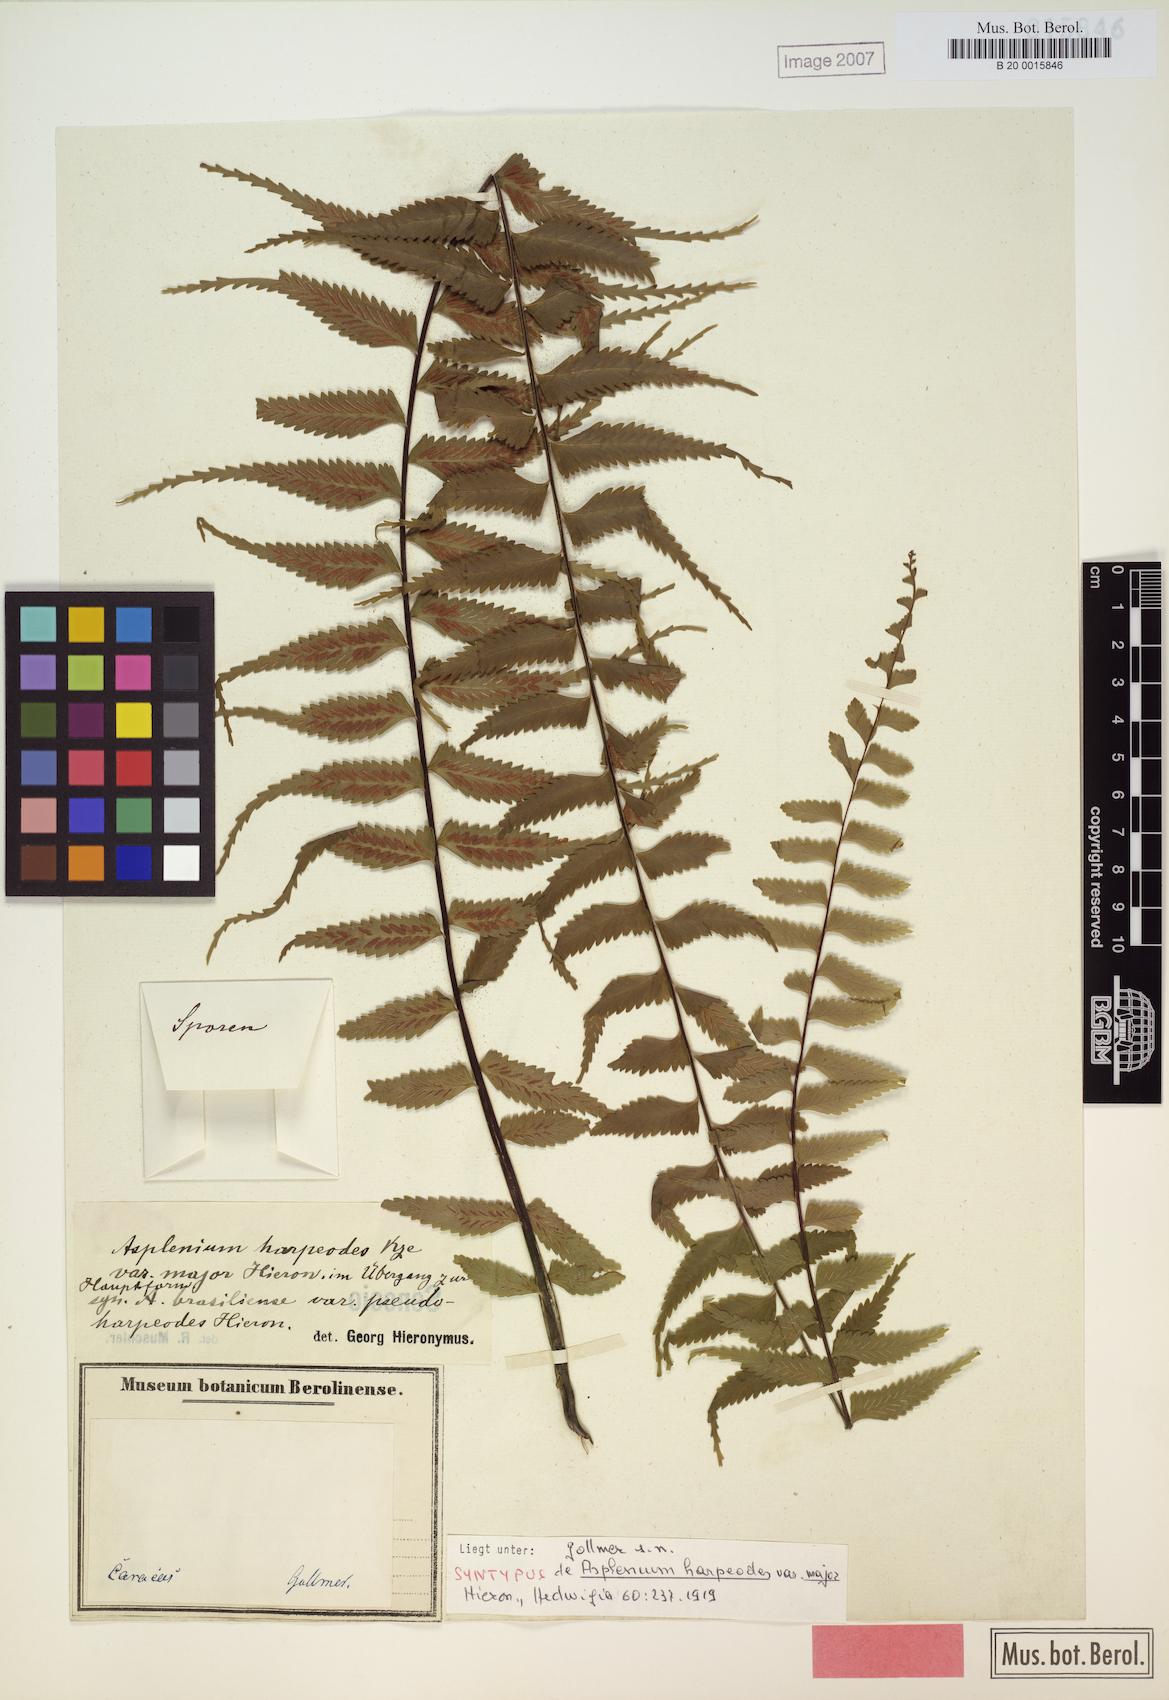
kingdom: Plantae
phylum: Tracheophyta
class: Polypodiopsida
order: Polypodiales
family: Aspleniaceae
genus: Asplenium
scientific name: Asplenium harpeodes
